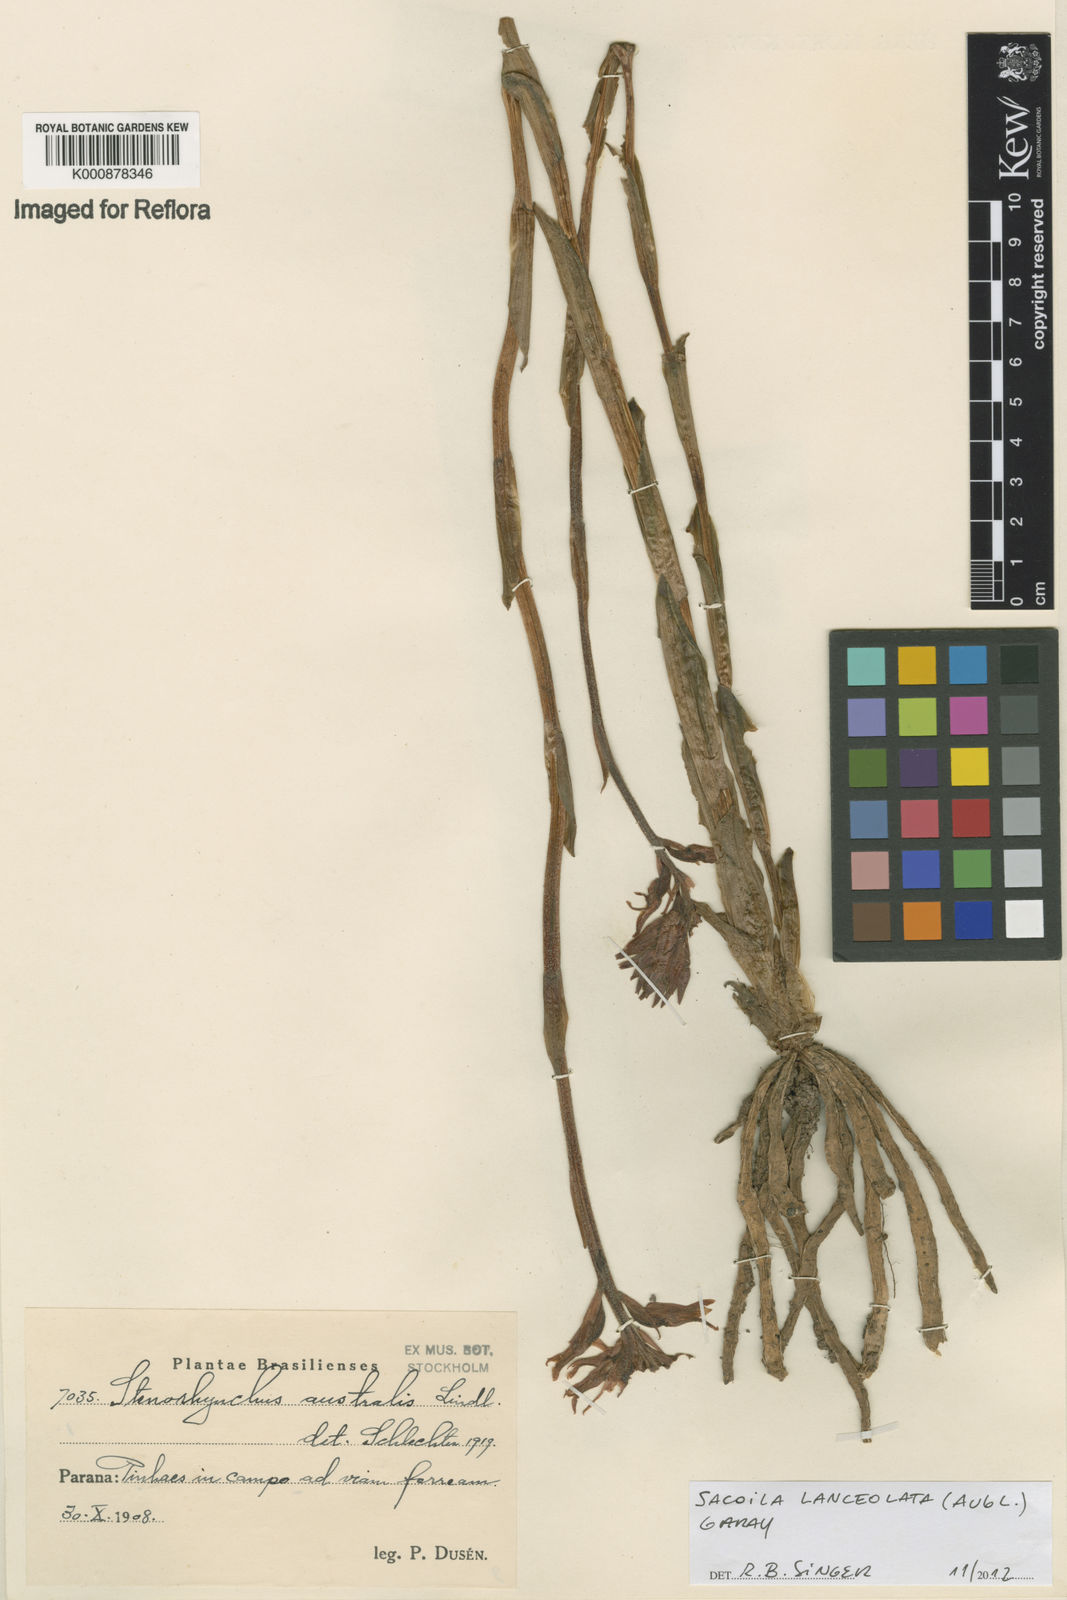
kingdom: Plantae
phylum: Tracheophyta
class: Liliopsida
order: Asparagales
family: Orchidaceae
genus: Sacoila
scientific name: Sacoila lanceolata
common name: Leafless beaked ladiestresses
